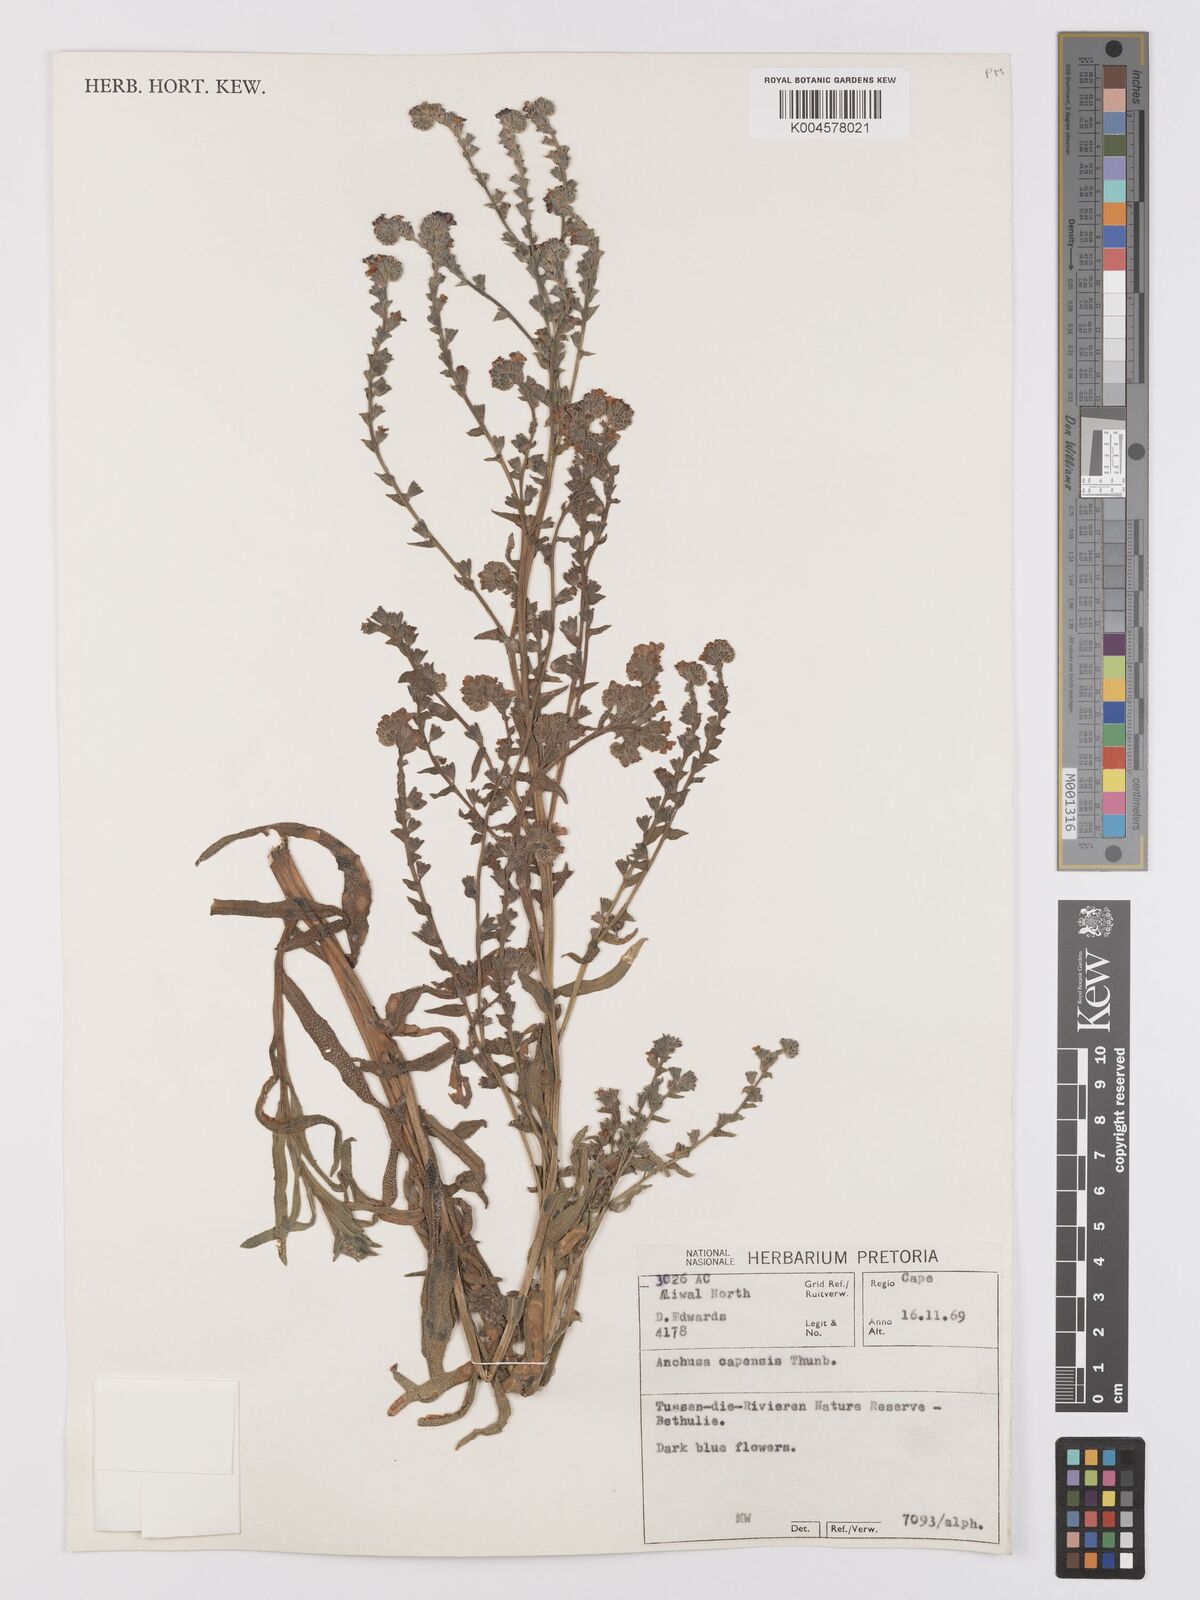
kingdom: Plantae
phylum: Tracheophyta
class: Magnoliopsida
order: Boraginales
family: Boraginaceae
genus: Anchusa
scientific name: Anchusa capensis
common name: Cape bugloss
